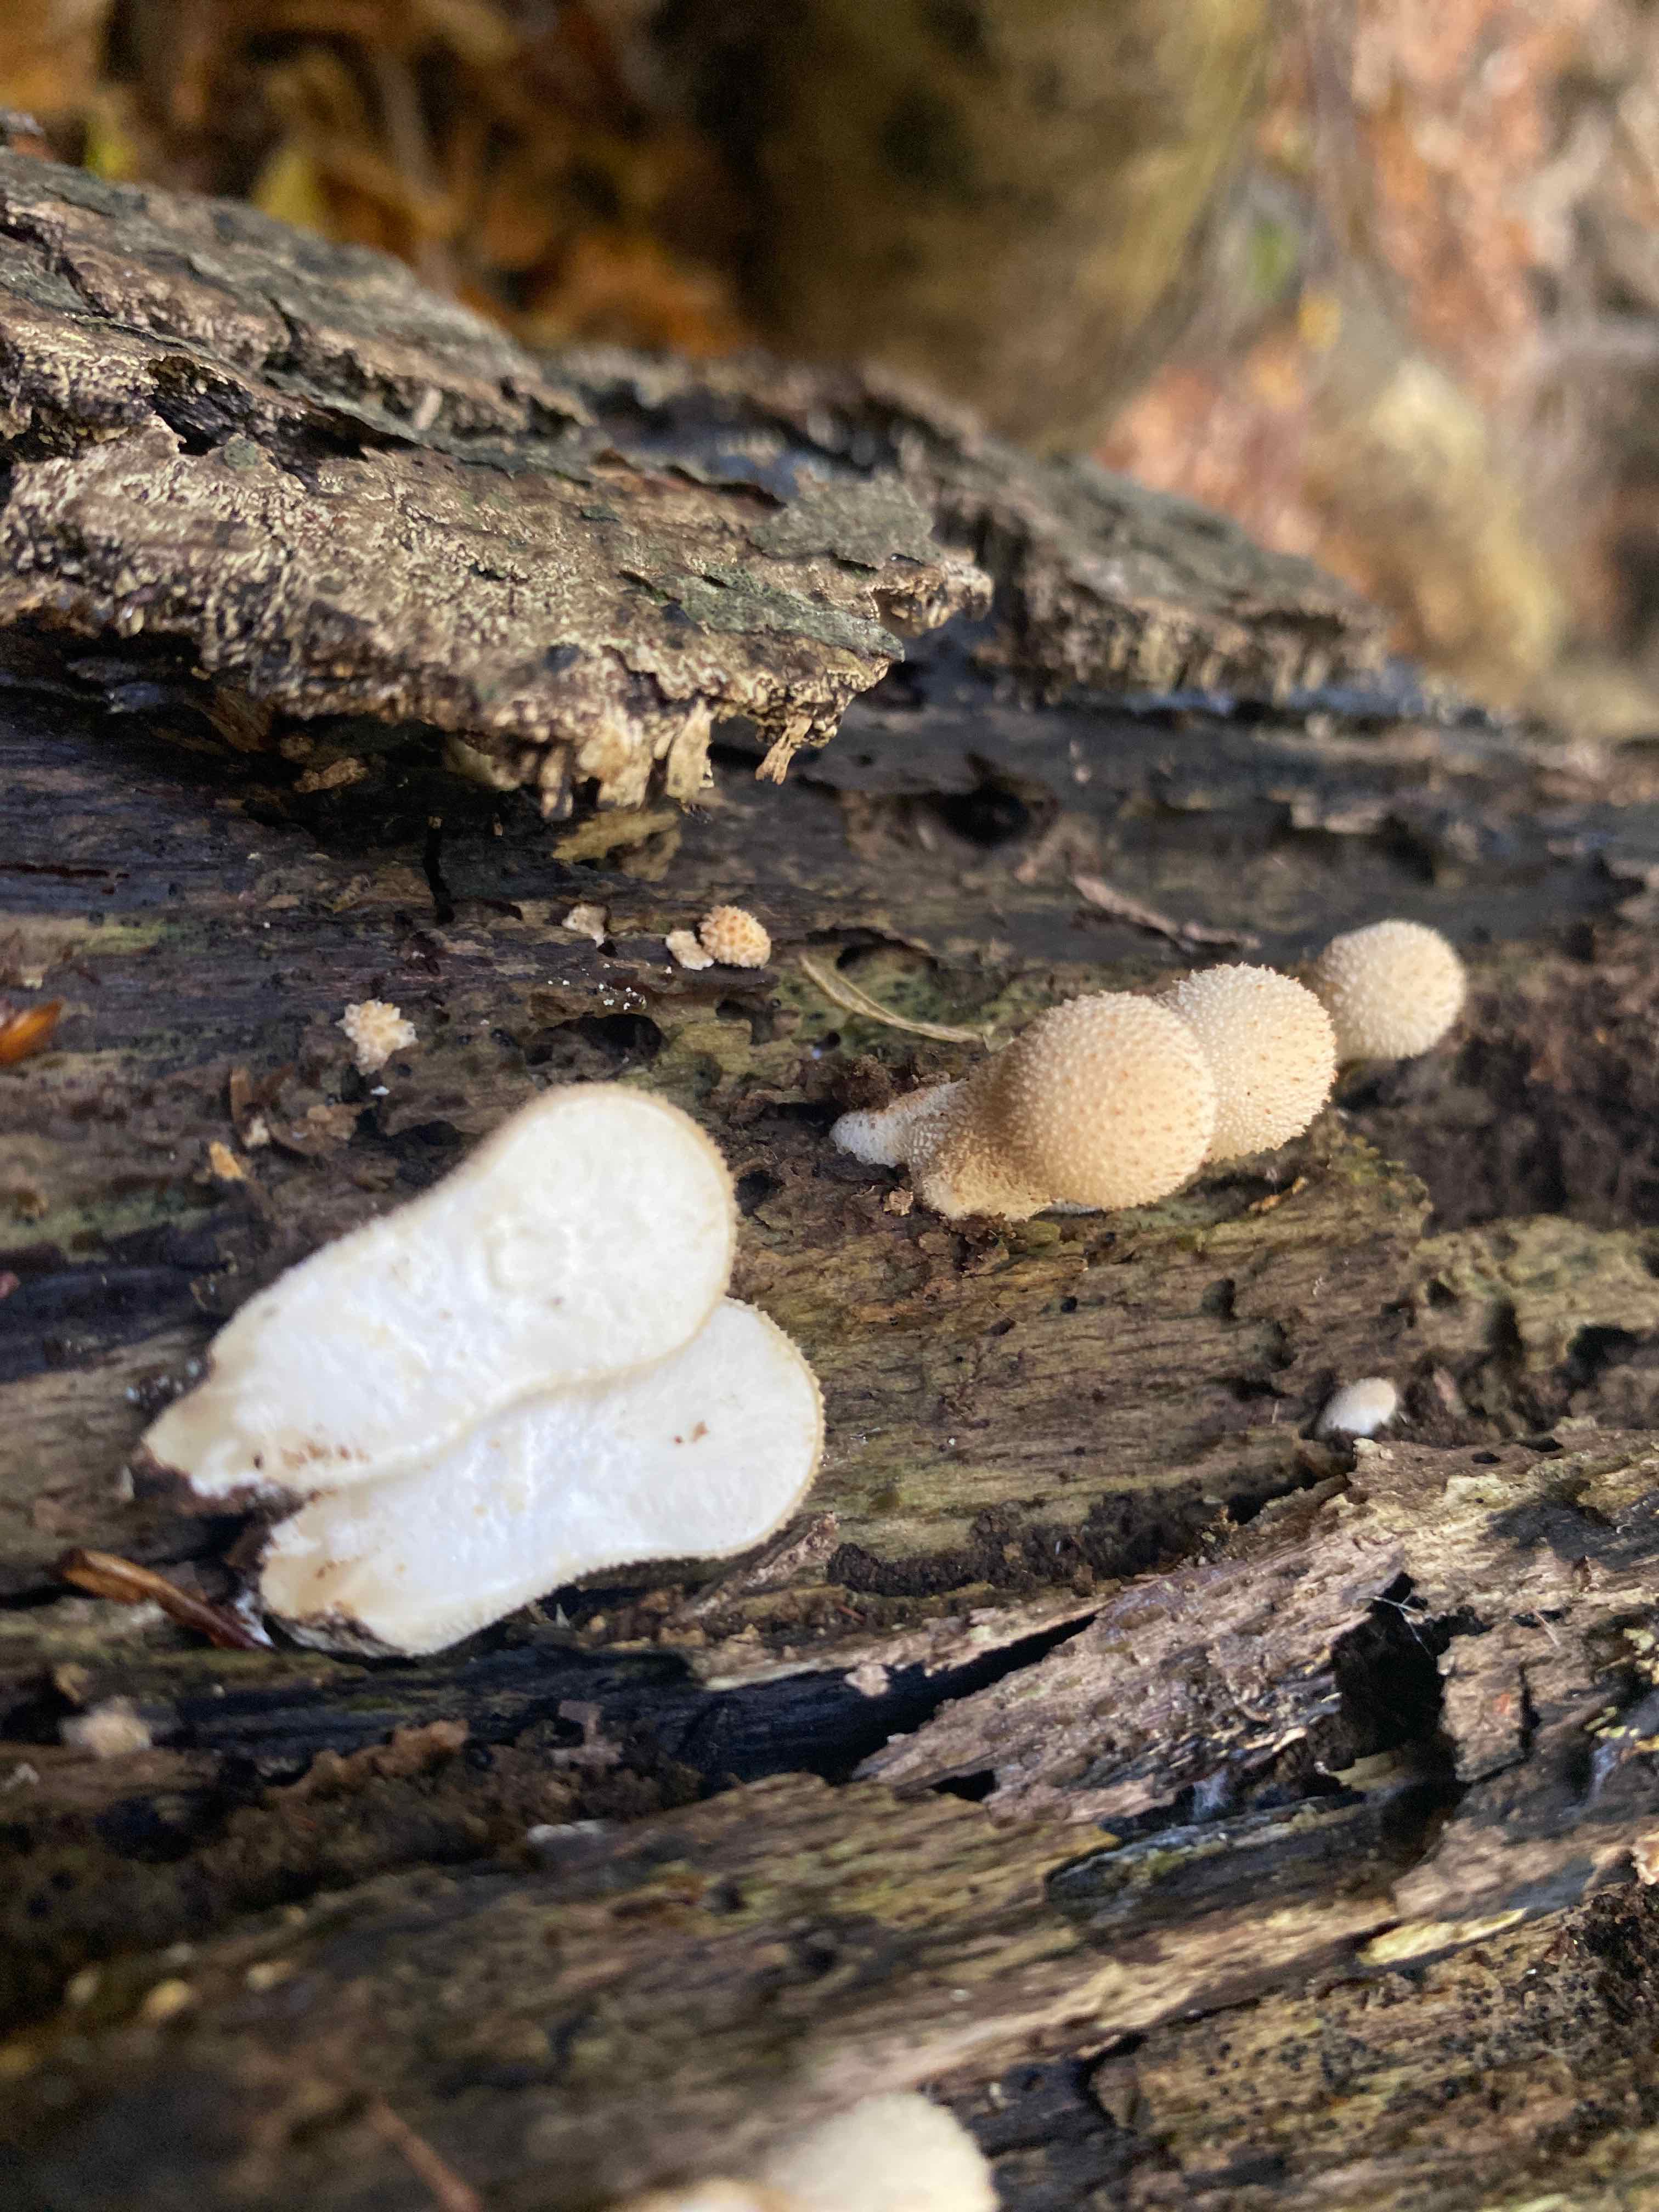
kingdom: Fungi
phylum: Basidiomycota
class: Agaricomycetes
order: Agaricales
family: Lycoperdaceae
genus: Apioperdon
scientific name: Apioperdon pyriforme
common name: pære-støvbold
